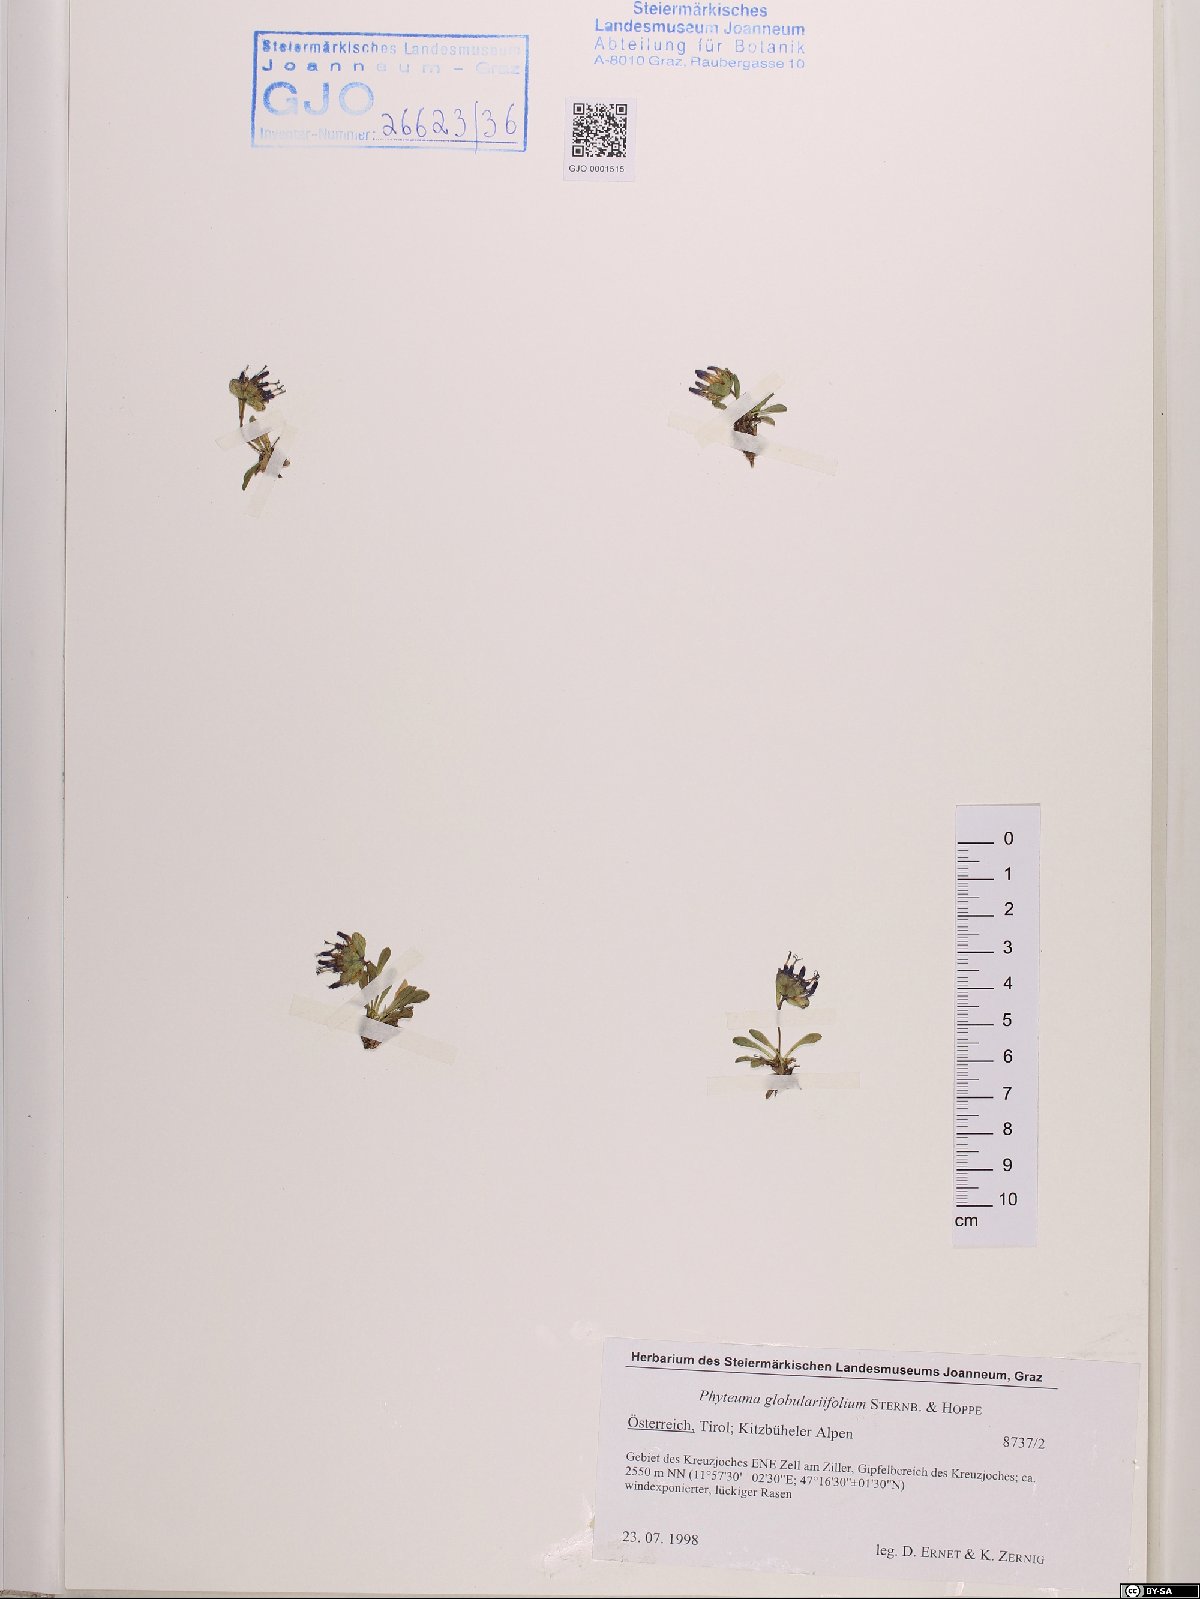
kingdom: Plantae
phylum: Tracheophyta
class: Magnoliopsida
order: Asterales
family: Campanulaceae
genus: Phyteuma
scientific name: Phyteuma globulariifolium
